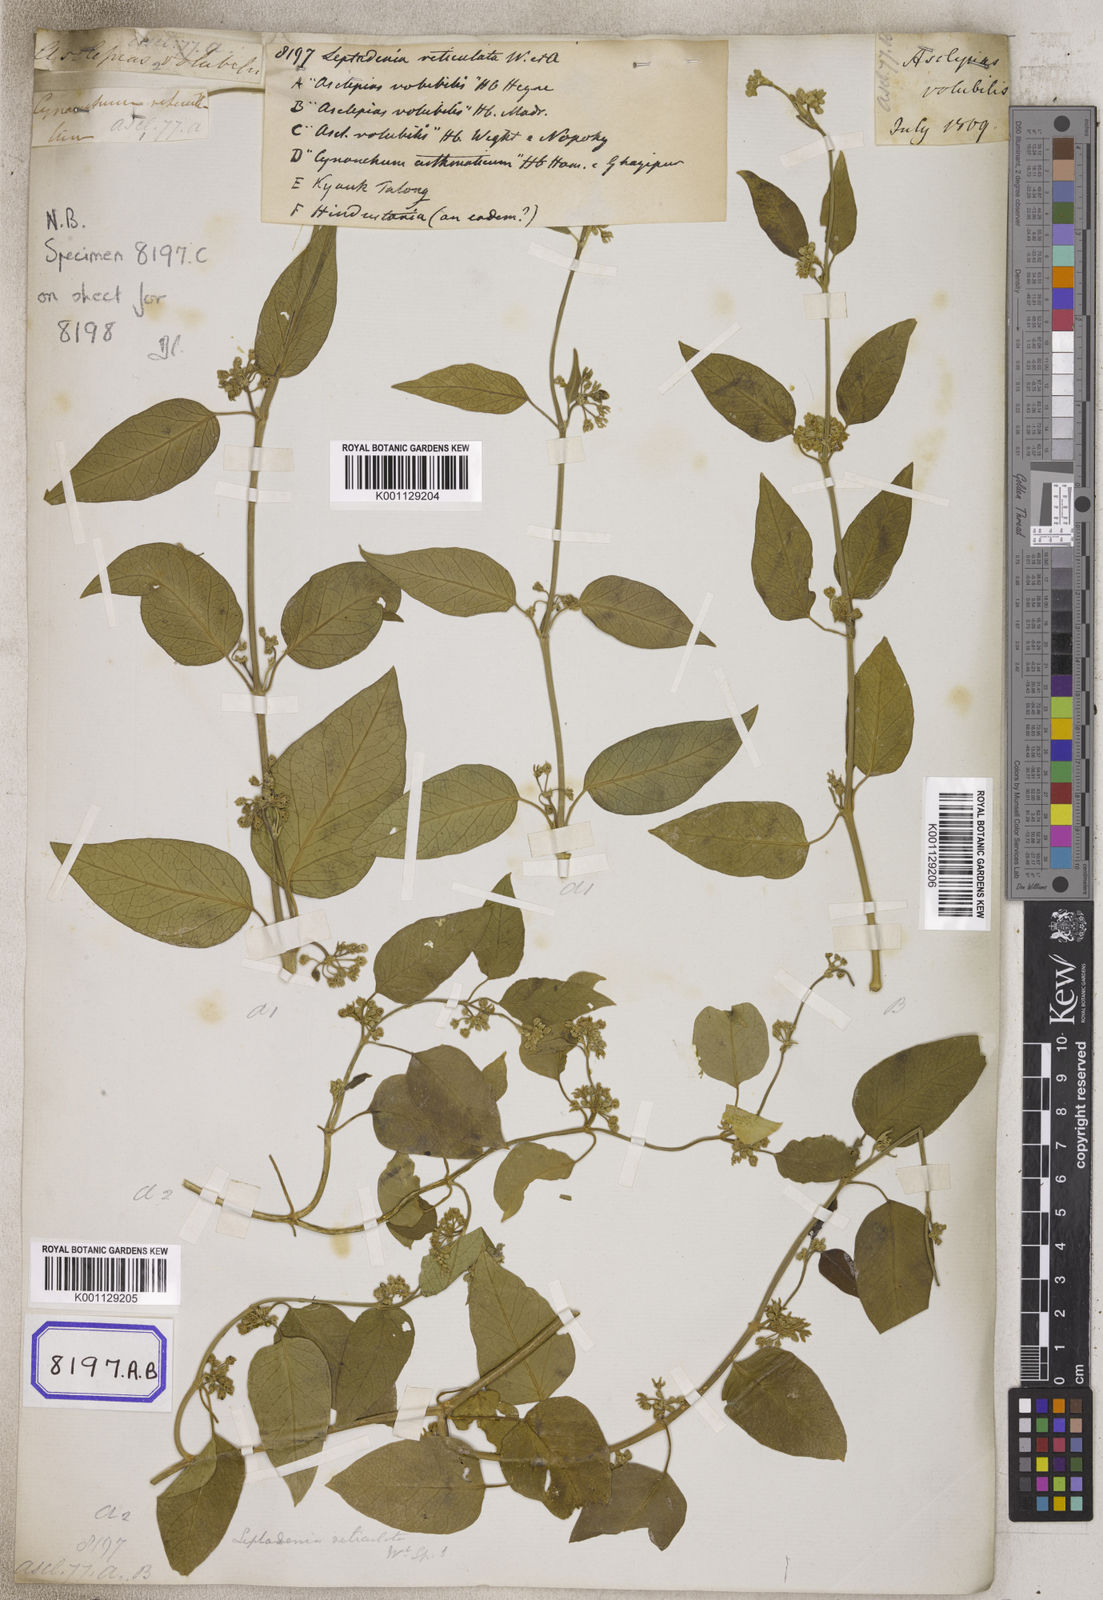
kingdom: Plantae
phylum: Tracheophyta
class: Magnoliopsida
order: Gentianales
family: Apocynaceae
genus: Leptadenia
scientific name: Leptadenia reticulata
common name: Leptadenia
